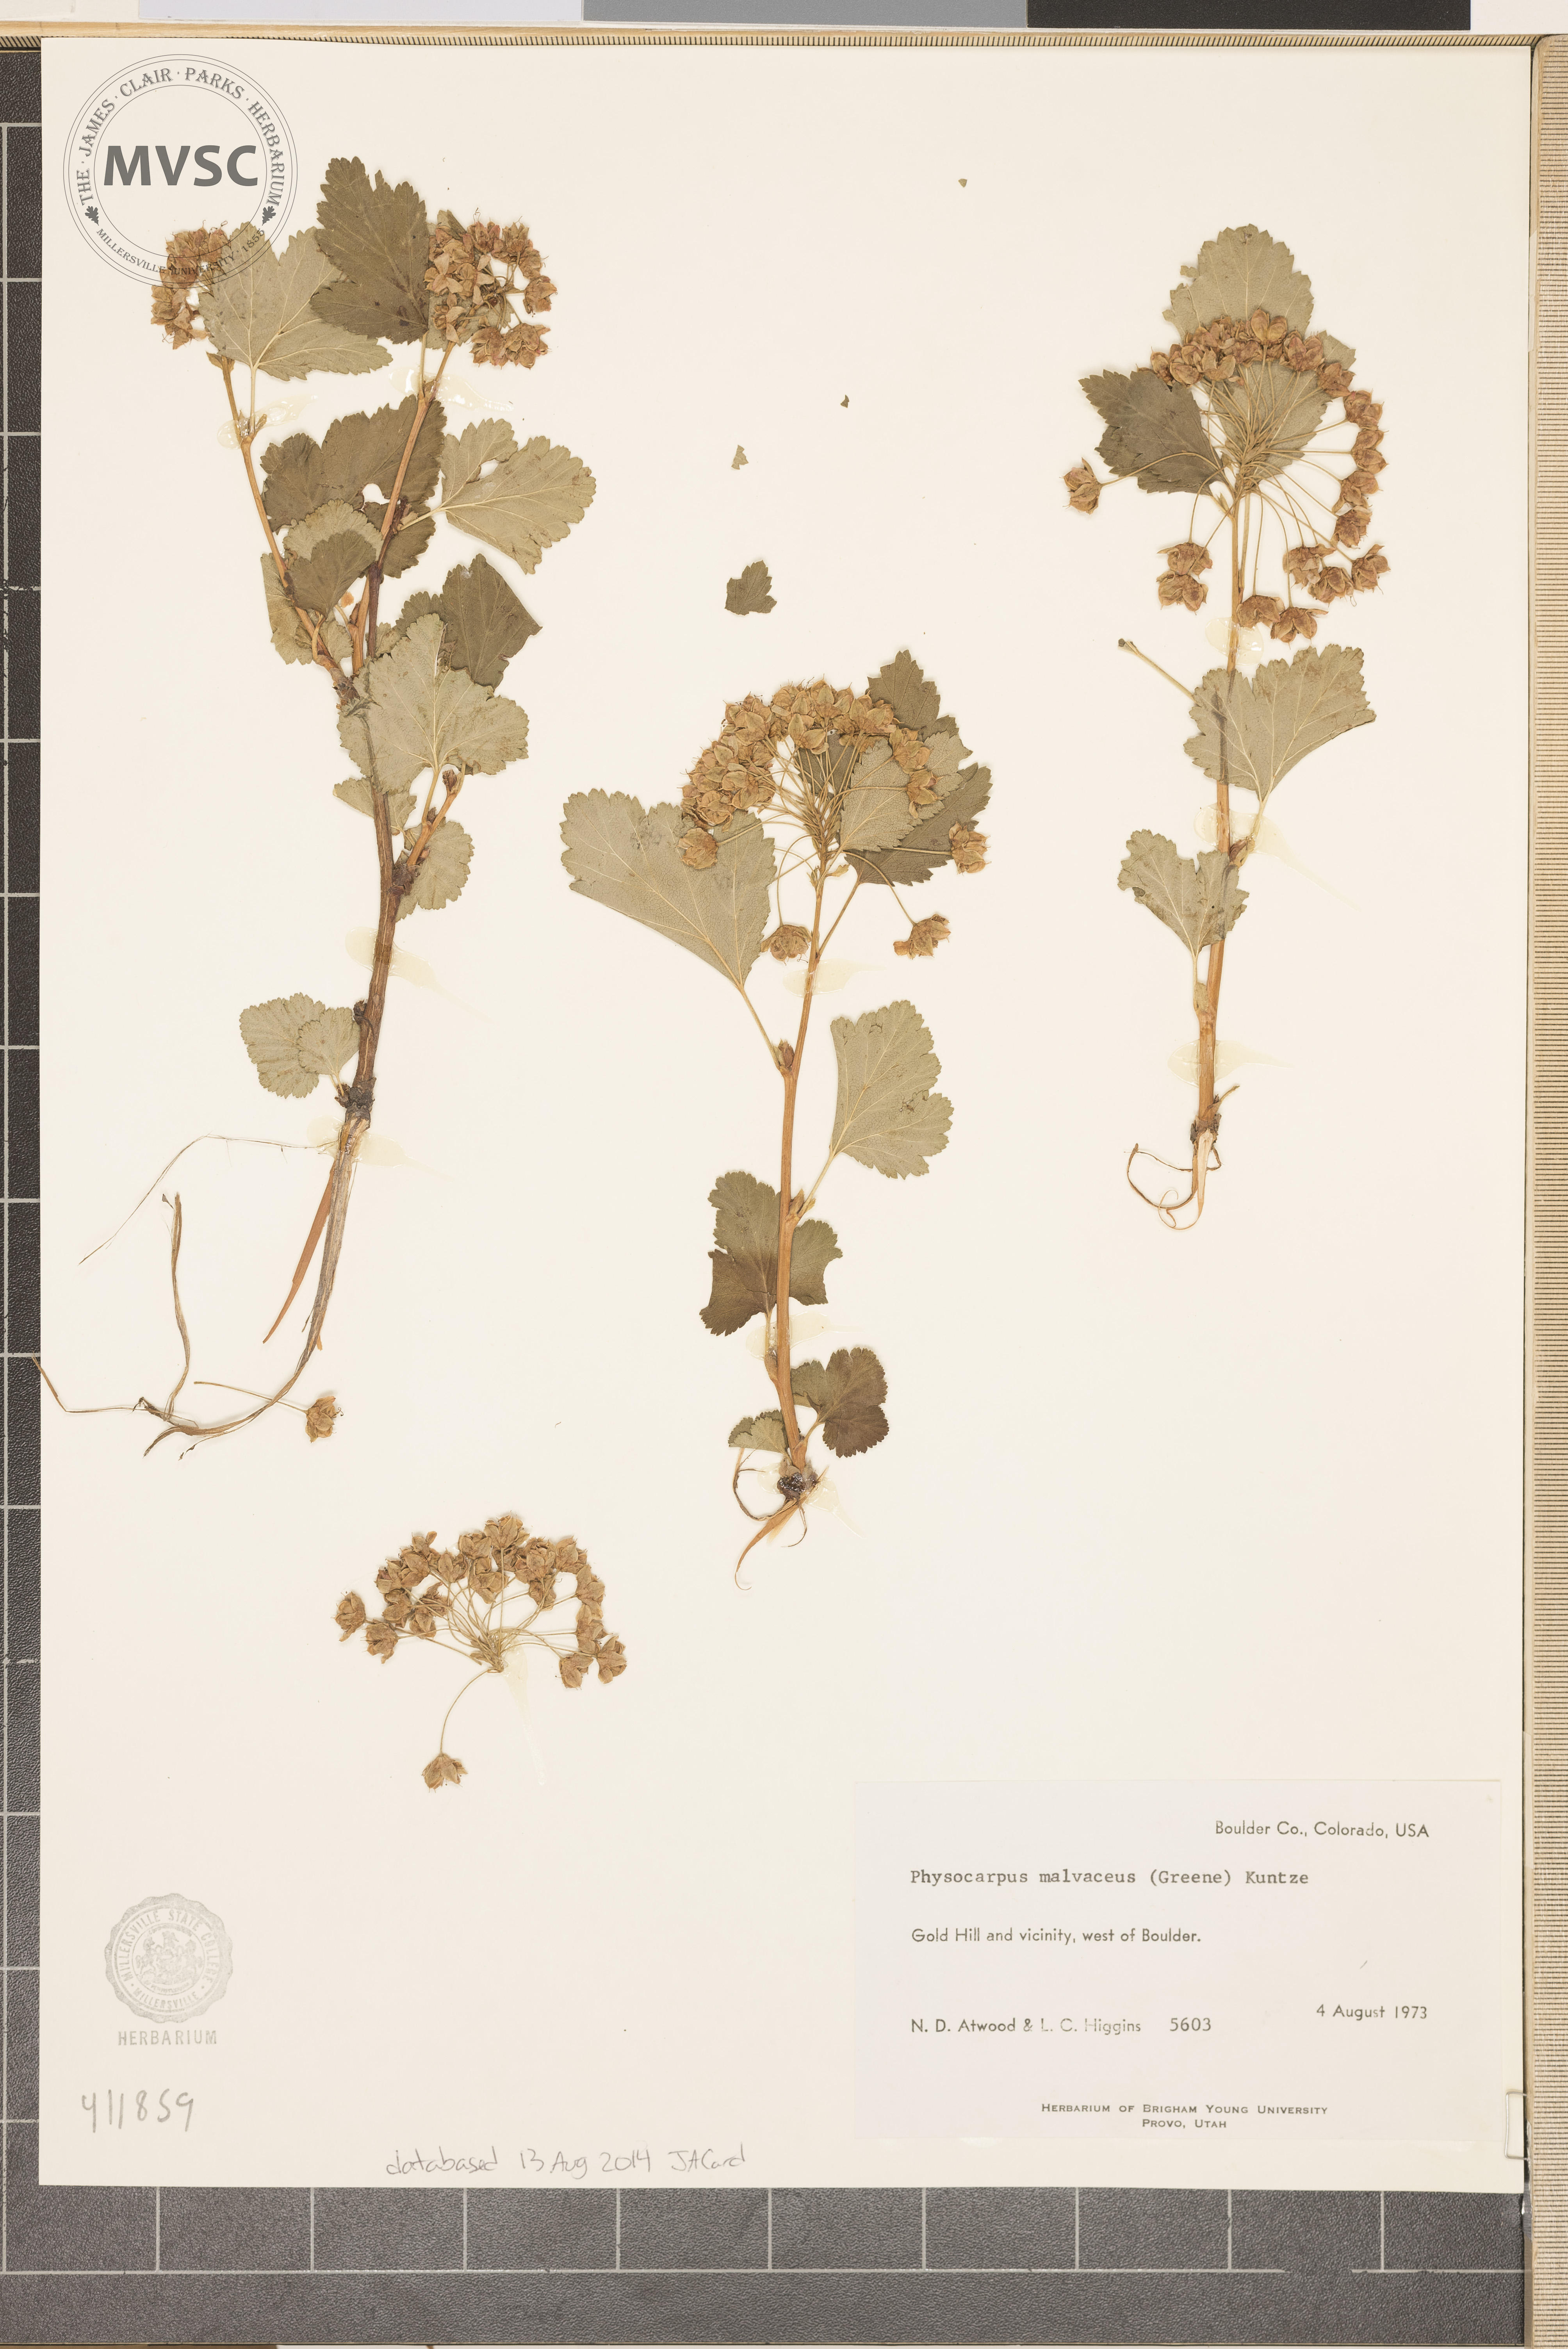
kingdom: Plantae
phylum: Tracheophyta
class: Magnoliopsida
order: Rosales
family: Rosaceae
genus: Physocarpus
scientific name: Physocarpus malvaceus
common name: Mallow ninebark
